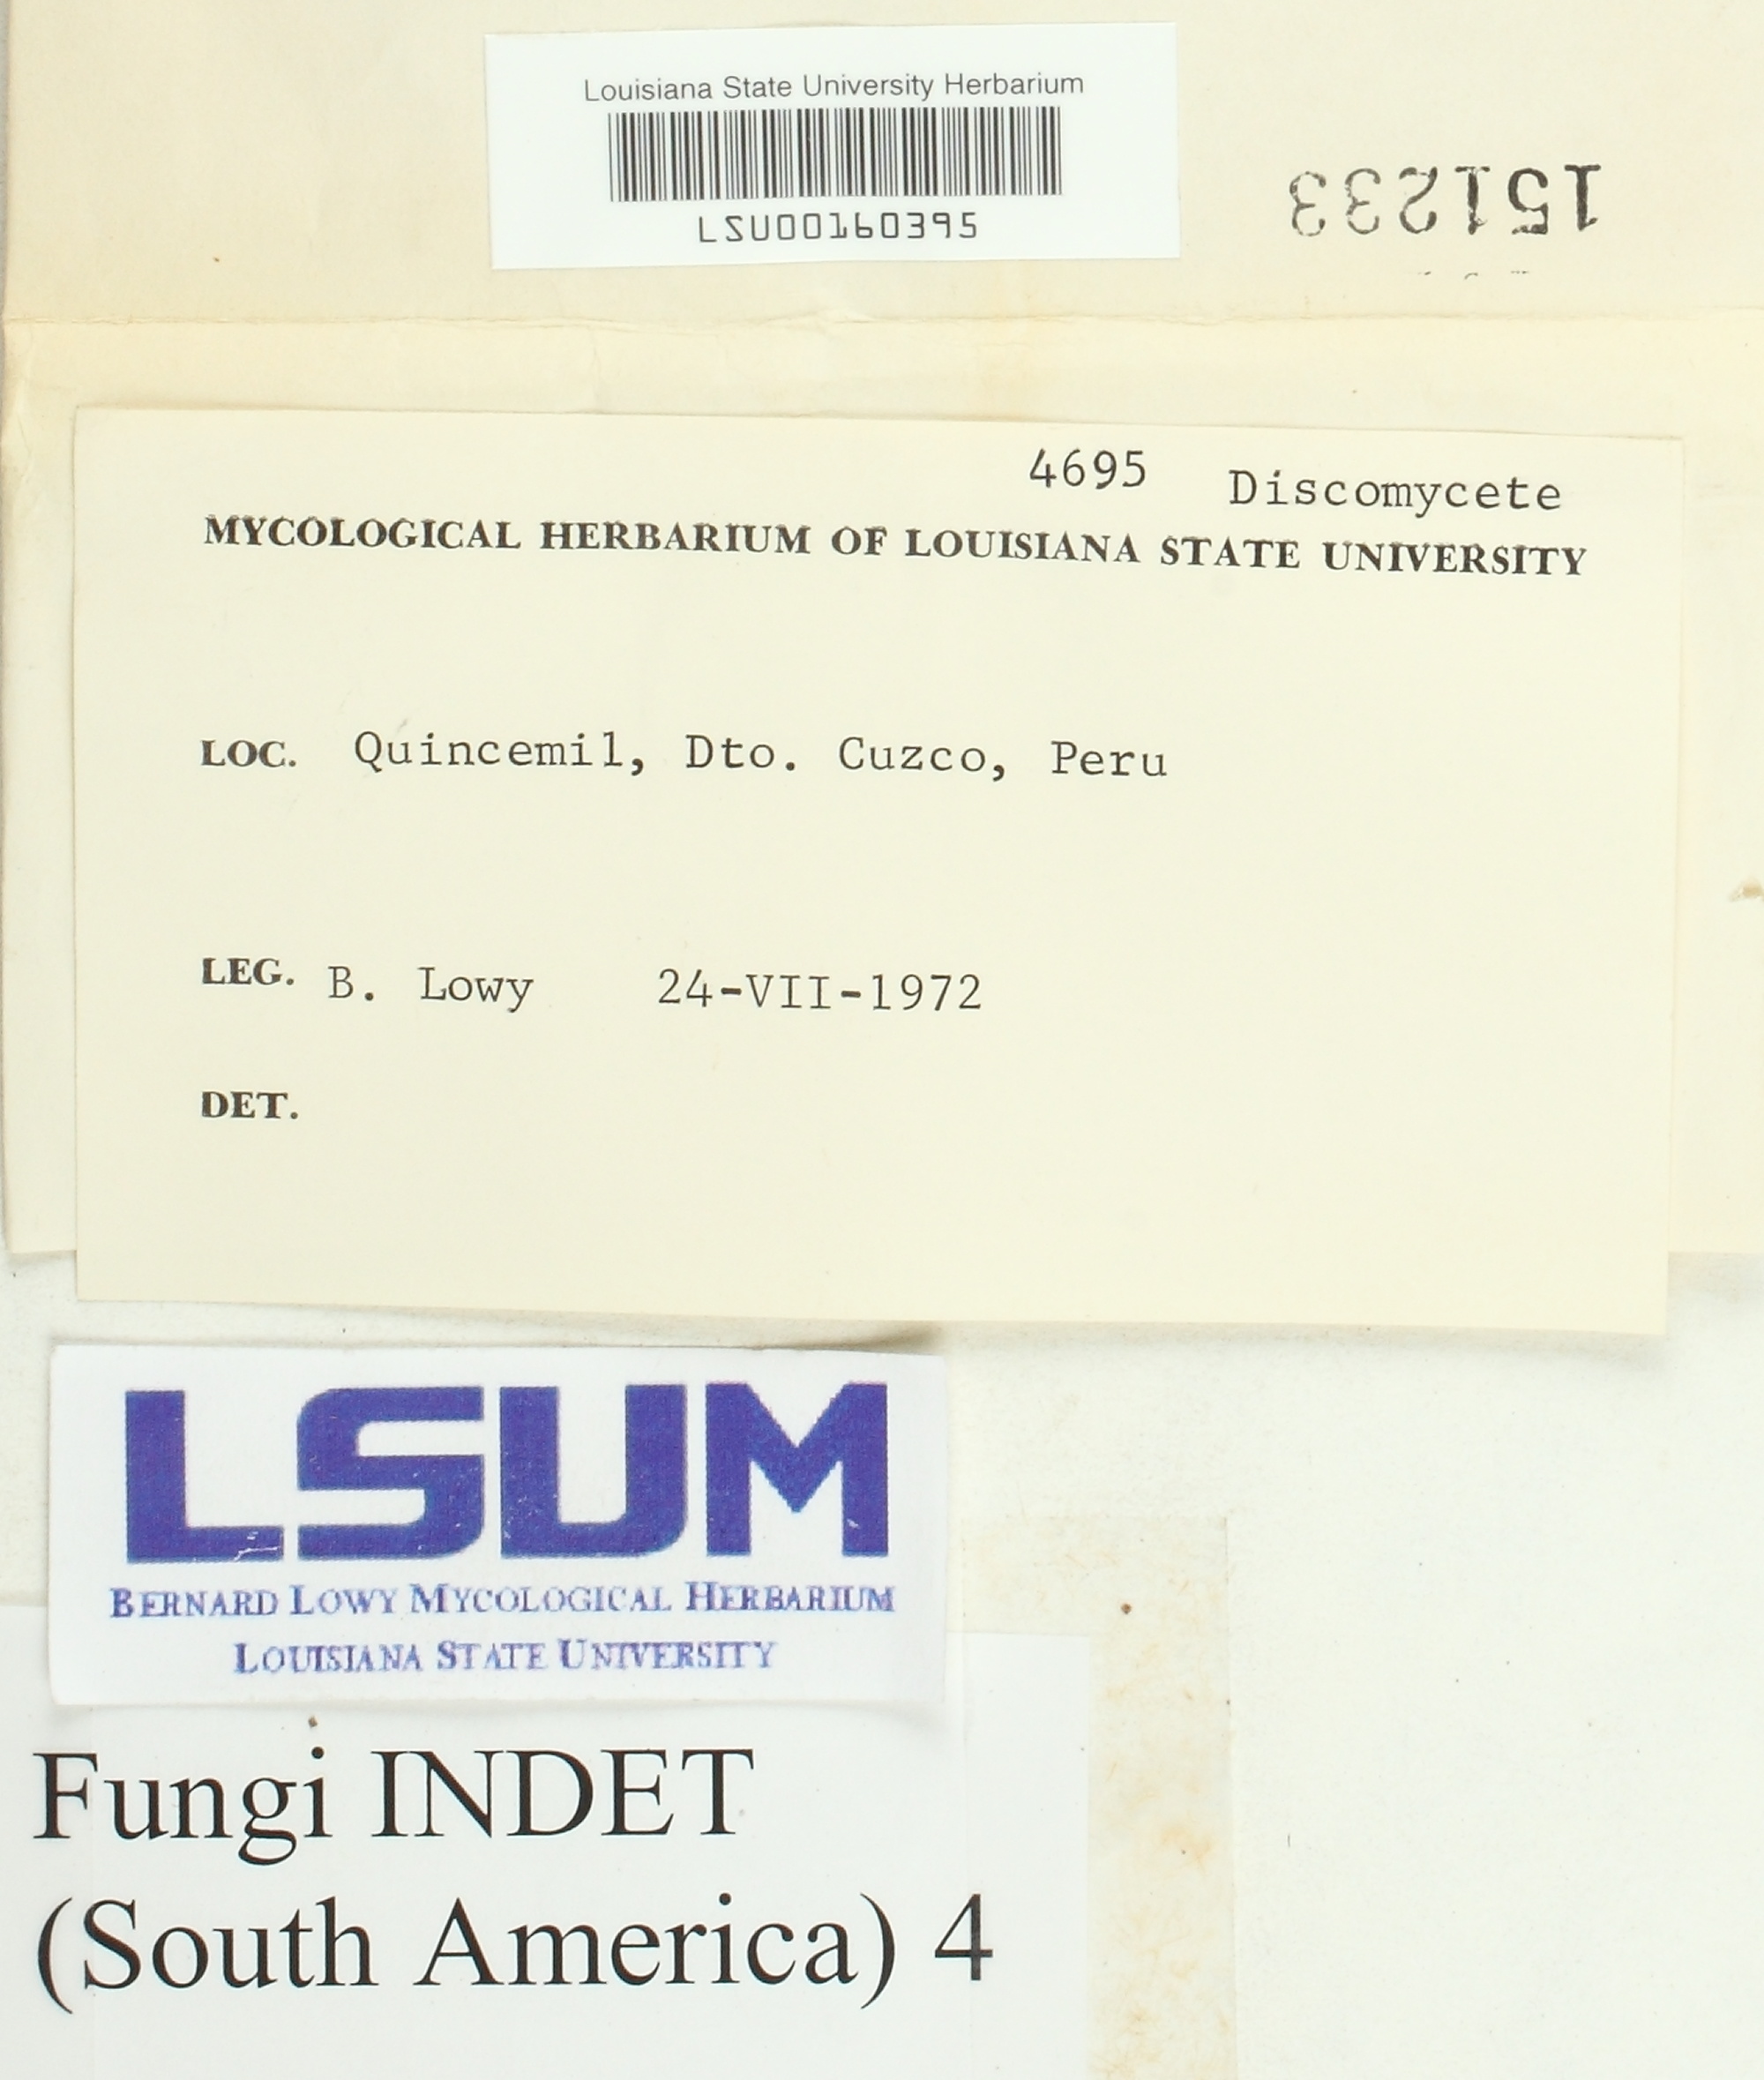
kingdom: Fungi
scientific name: Fungi
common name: Fungi
